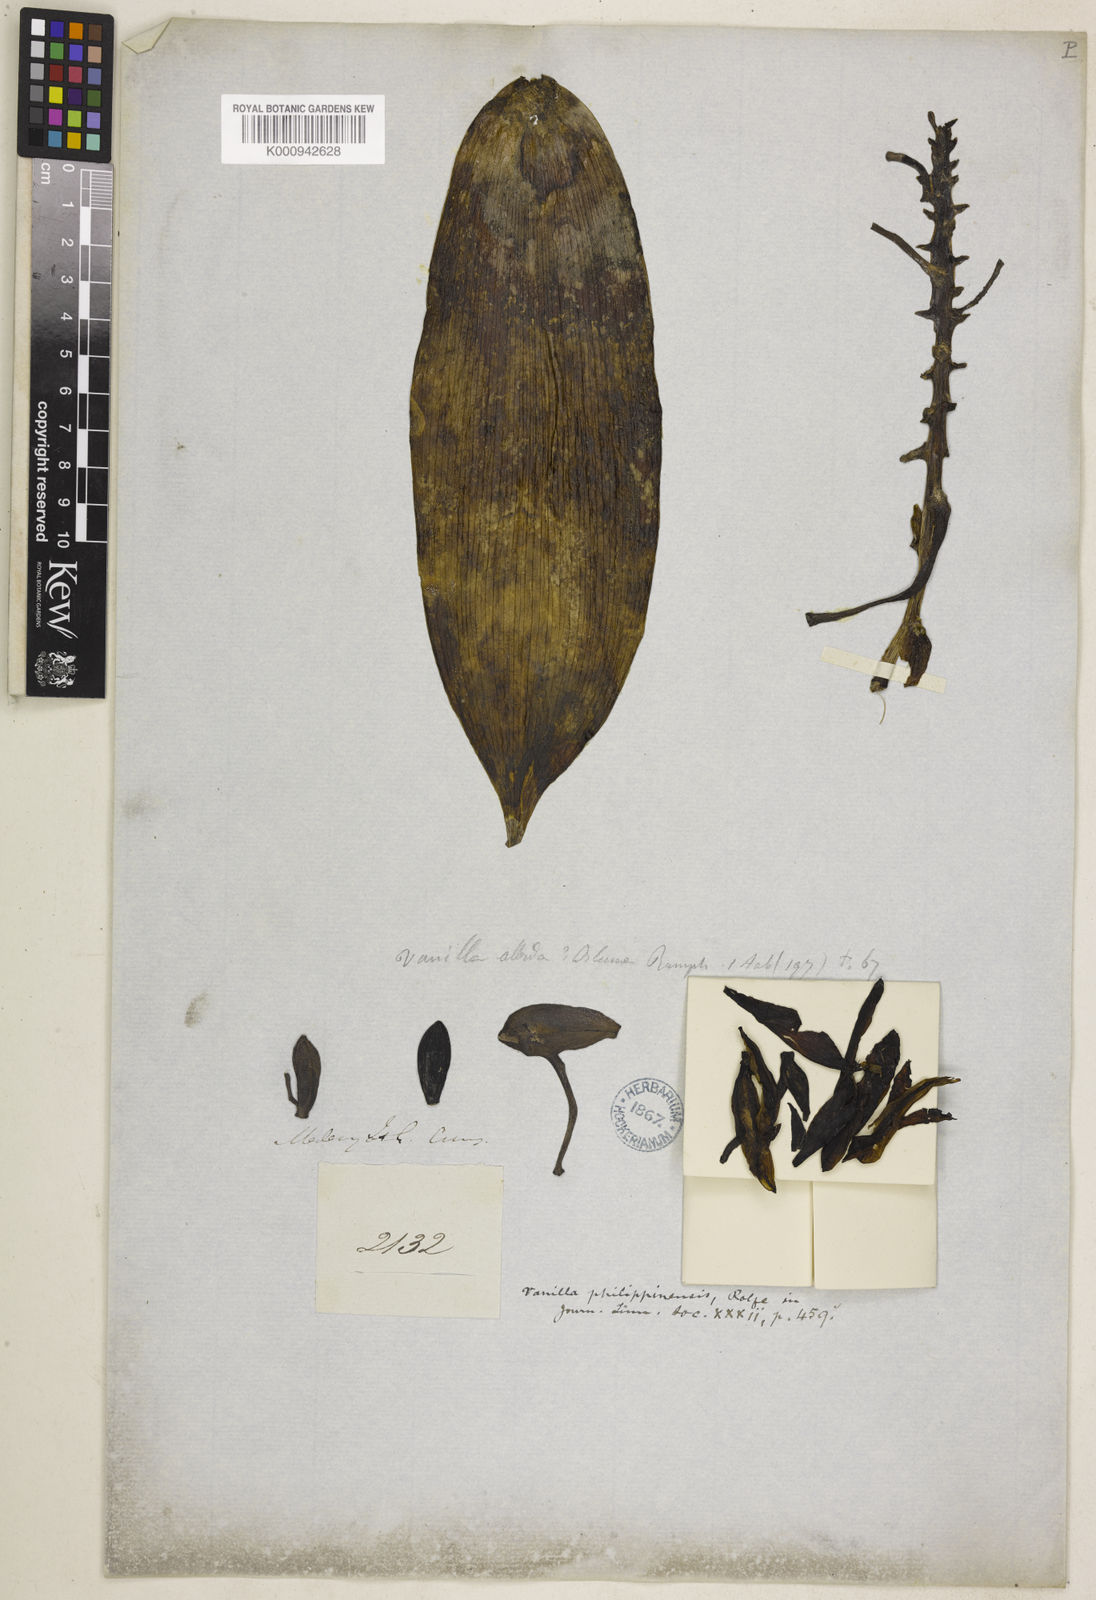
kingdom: Plantae
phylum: Tracheophyta
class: Liliopsida
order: Asparagales
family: Orchidaceae
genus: Vanilla
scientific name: Vanilla ovalis
